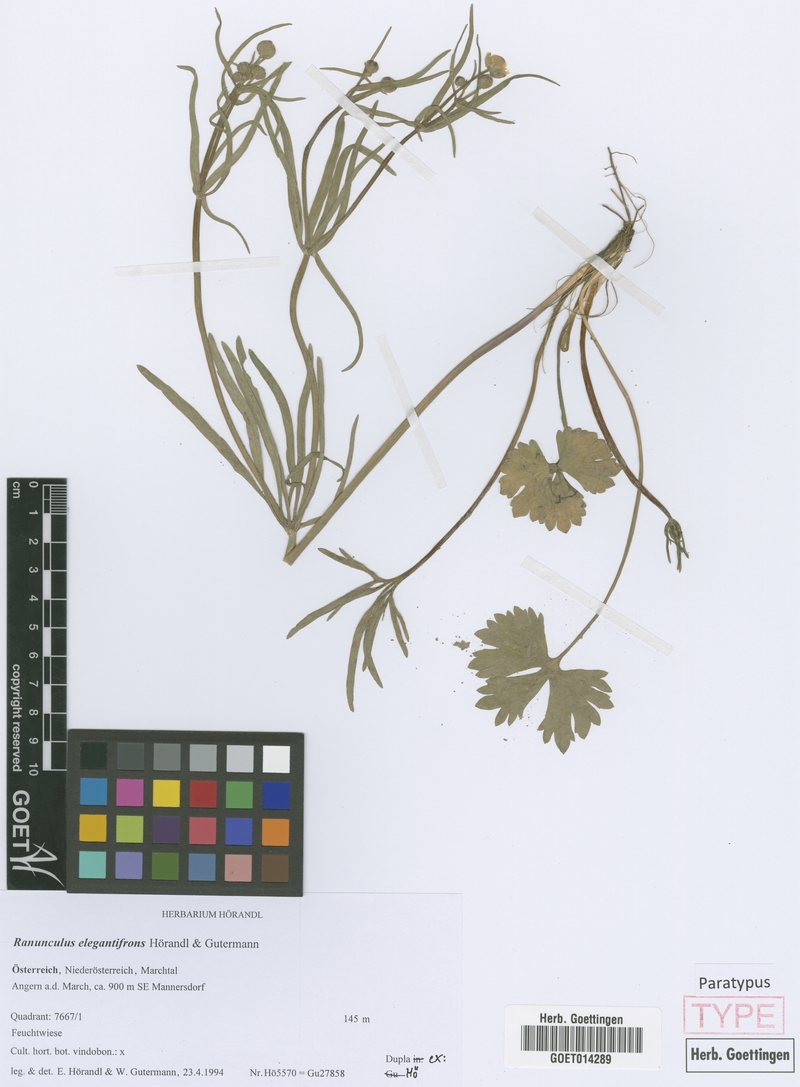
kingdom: Plantae
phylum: Tracheophyta
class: Magnoliopsida
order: Ranunculales
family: Ranunculaceae
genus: Ranunculus
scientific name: Ranunculus elegantifrons
